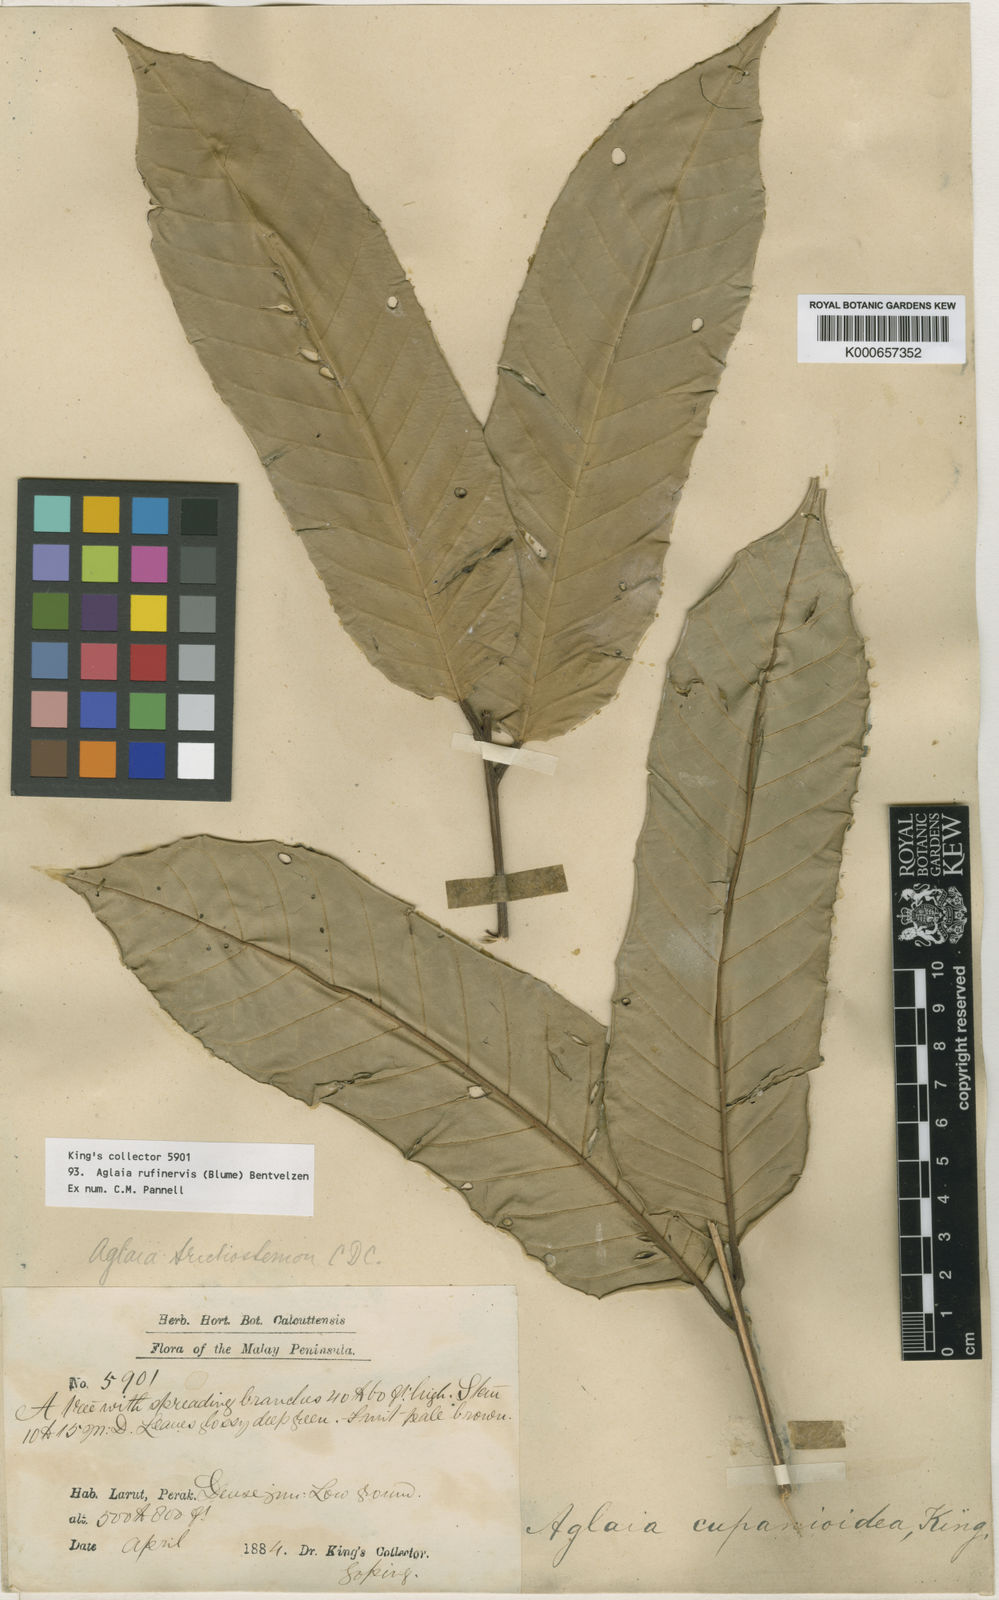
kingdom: Plantae
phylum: Tracheophyta
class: Magnoliopsida
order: Sapindales
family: Meliaceae
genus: Aglaia
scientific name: Aglaia rufinervis
